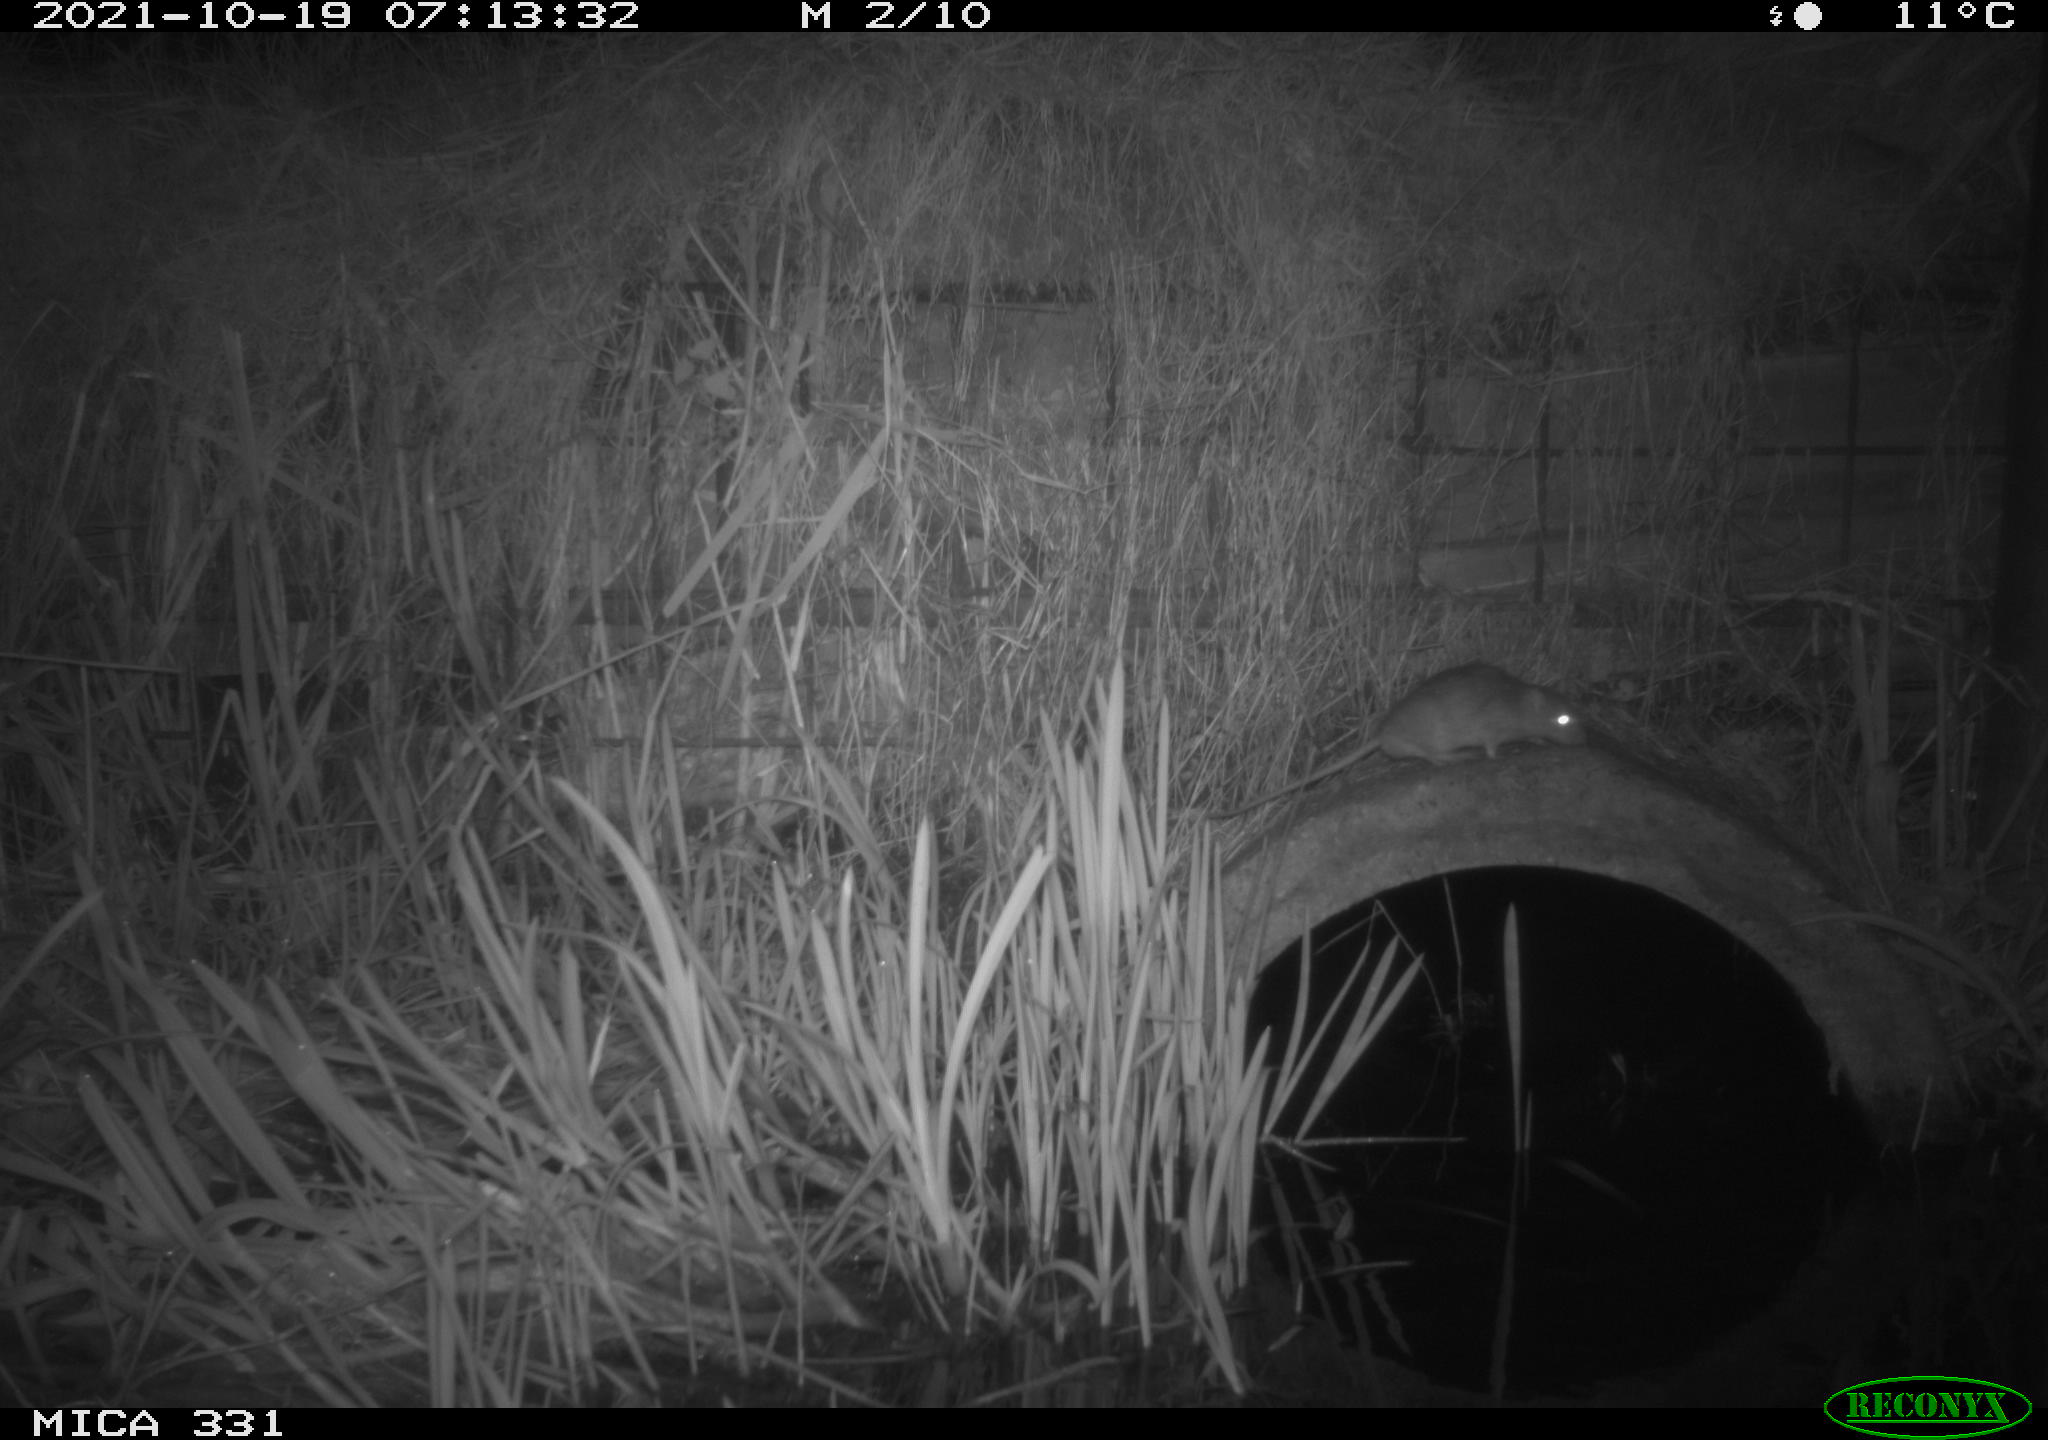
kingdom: Animalia
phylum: Chordata
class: Mammalia
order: Rodentia
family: Muridae
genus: Rattus
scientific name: Rattus norvegicus
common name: Brown rat
